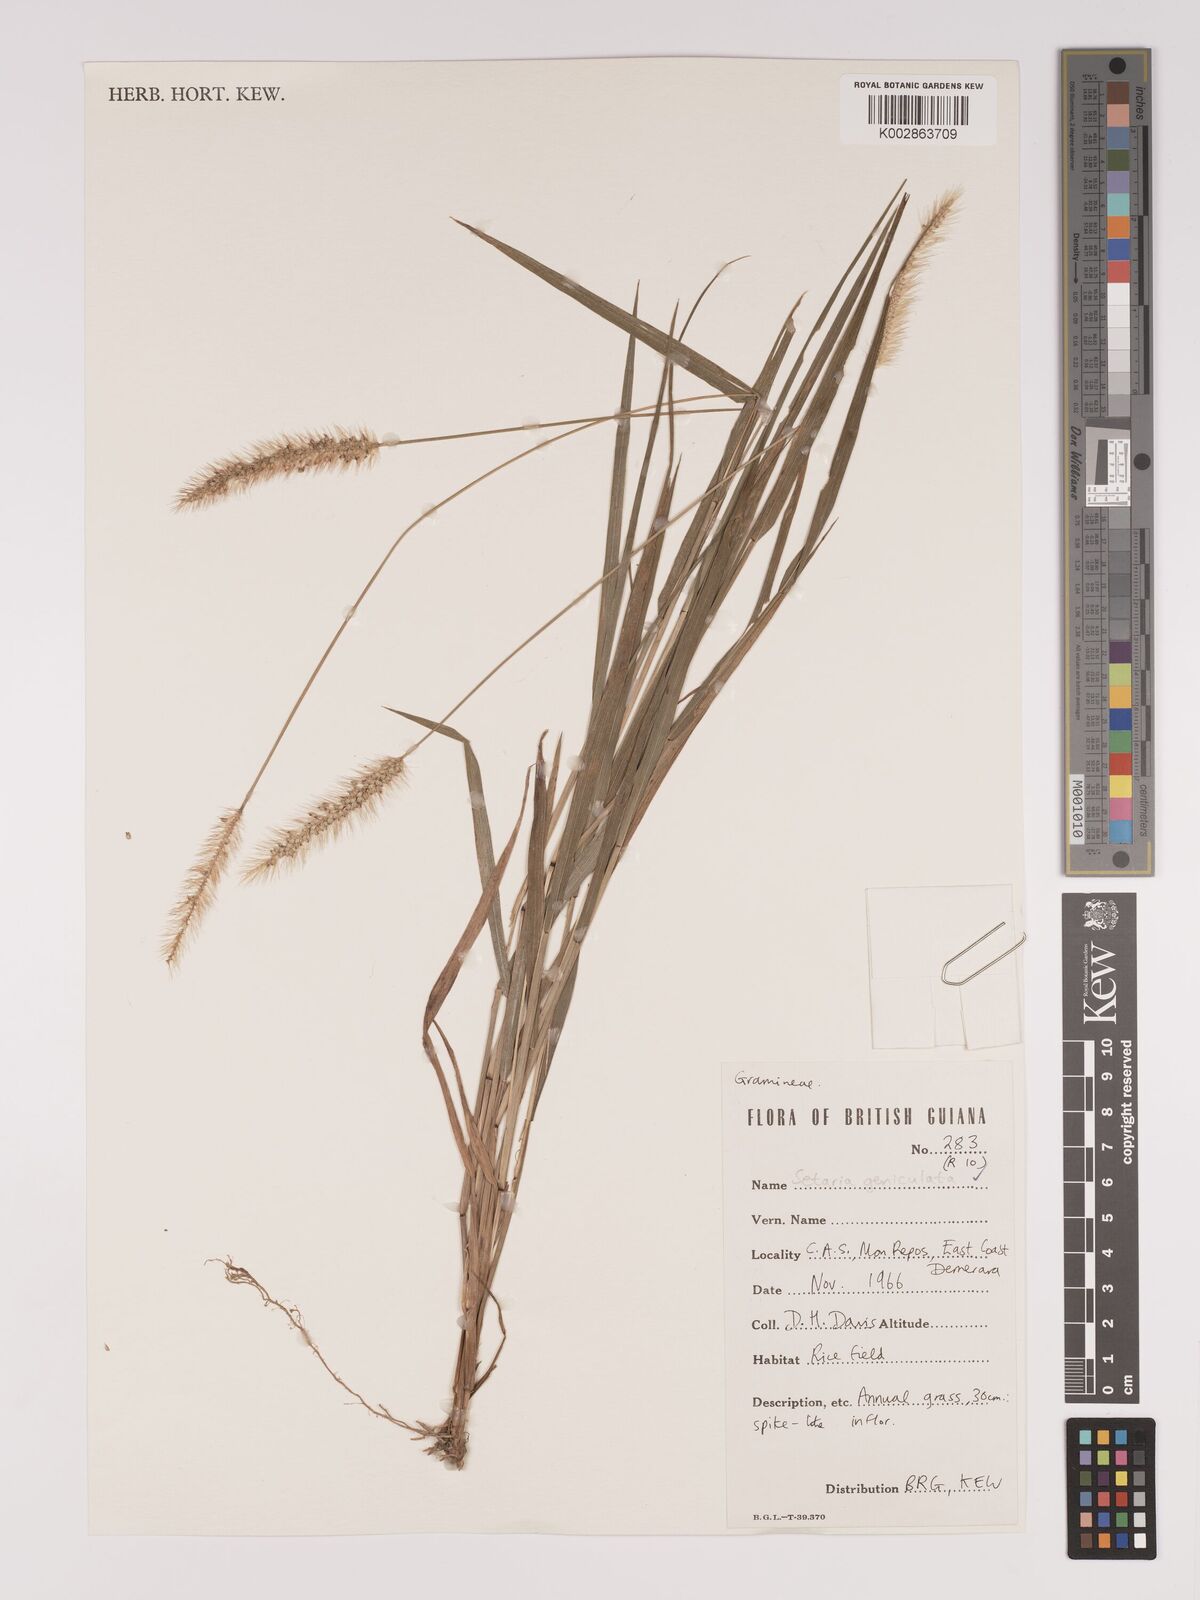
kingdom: Plantae
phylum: Tracheophyta
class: Liliopsida
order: Poales
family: Poaceae
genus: Setaria
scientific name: Setaria parviflora
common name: Knotroot bristle-grass
